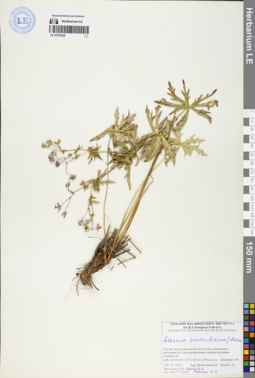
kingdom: Plantae
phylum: Tracheophyta
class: Magnoliopsida
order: Geraniales
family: Geraniaceae
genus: Geranium
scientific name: Geranium pseudosibiricum
